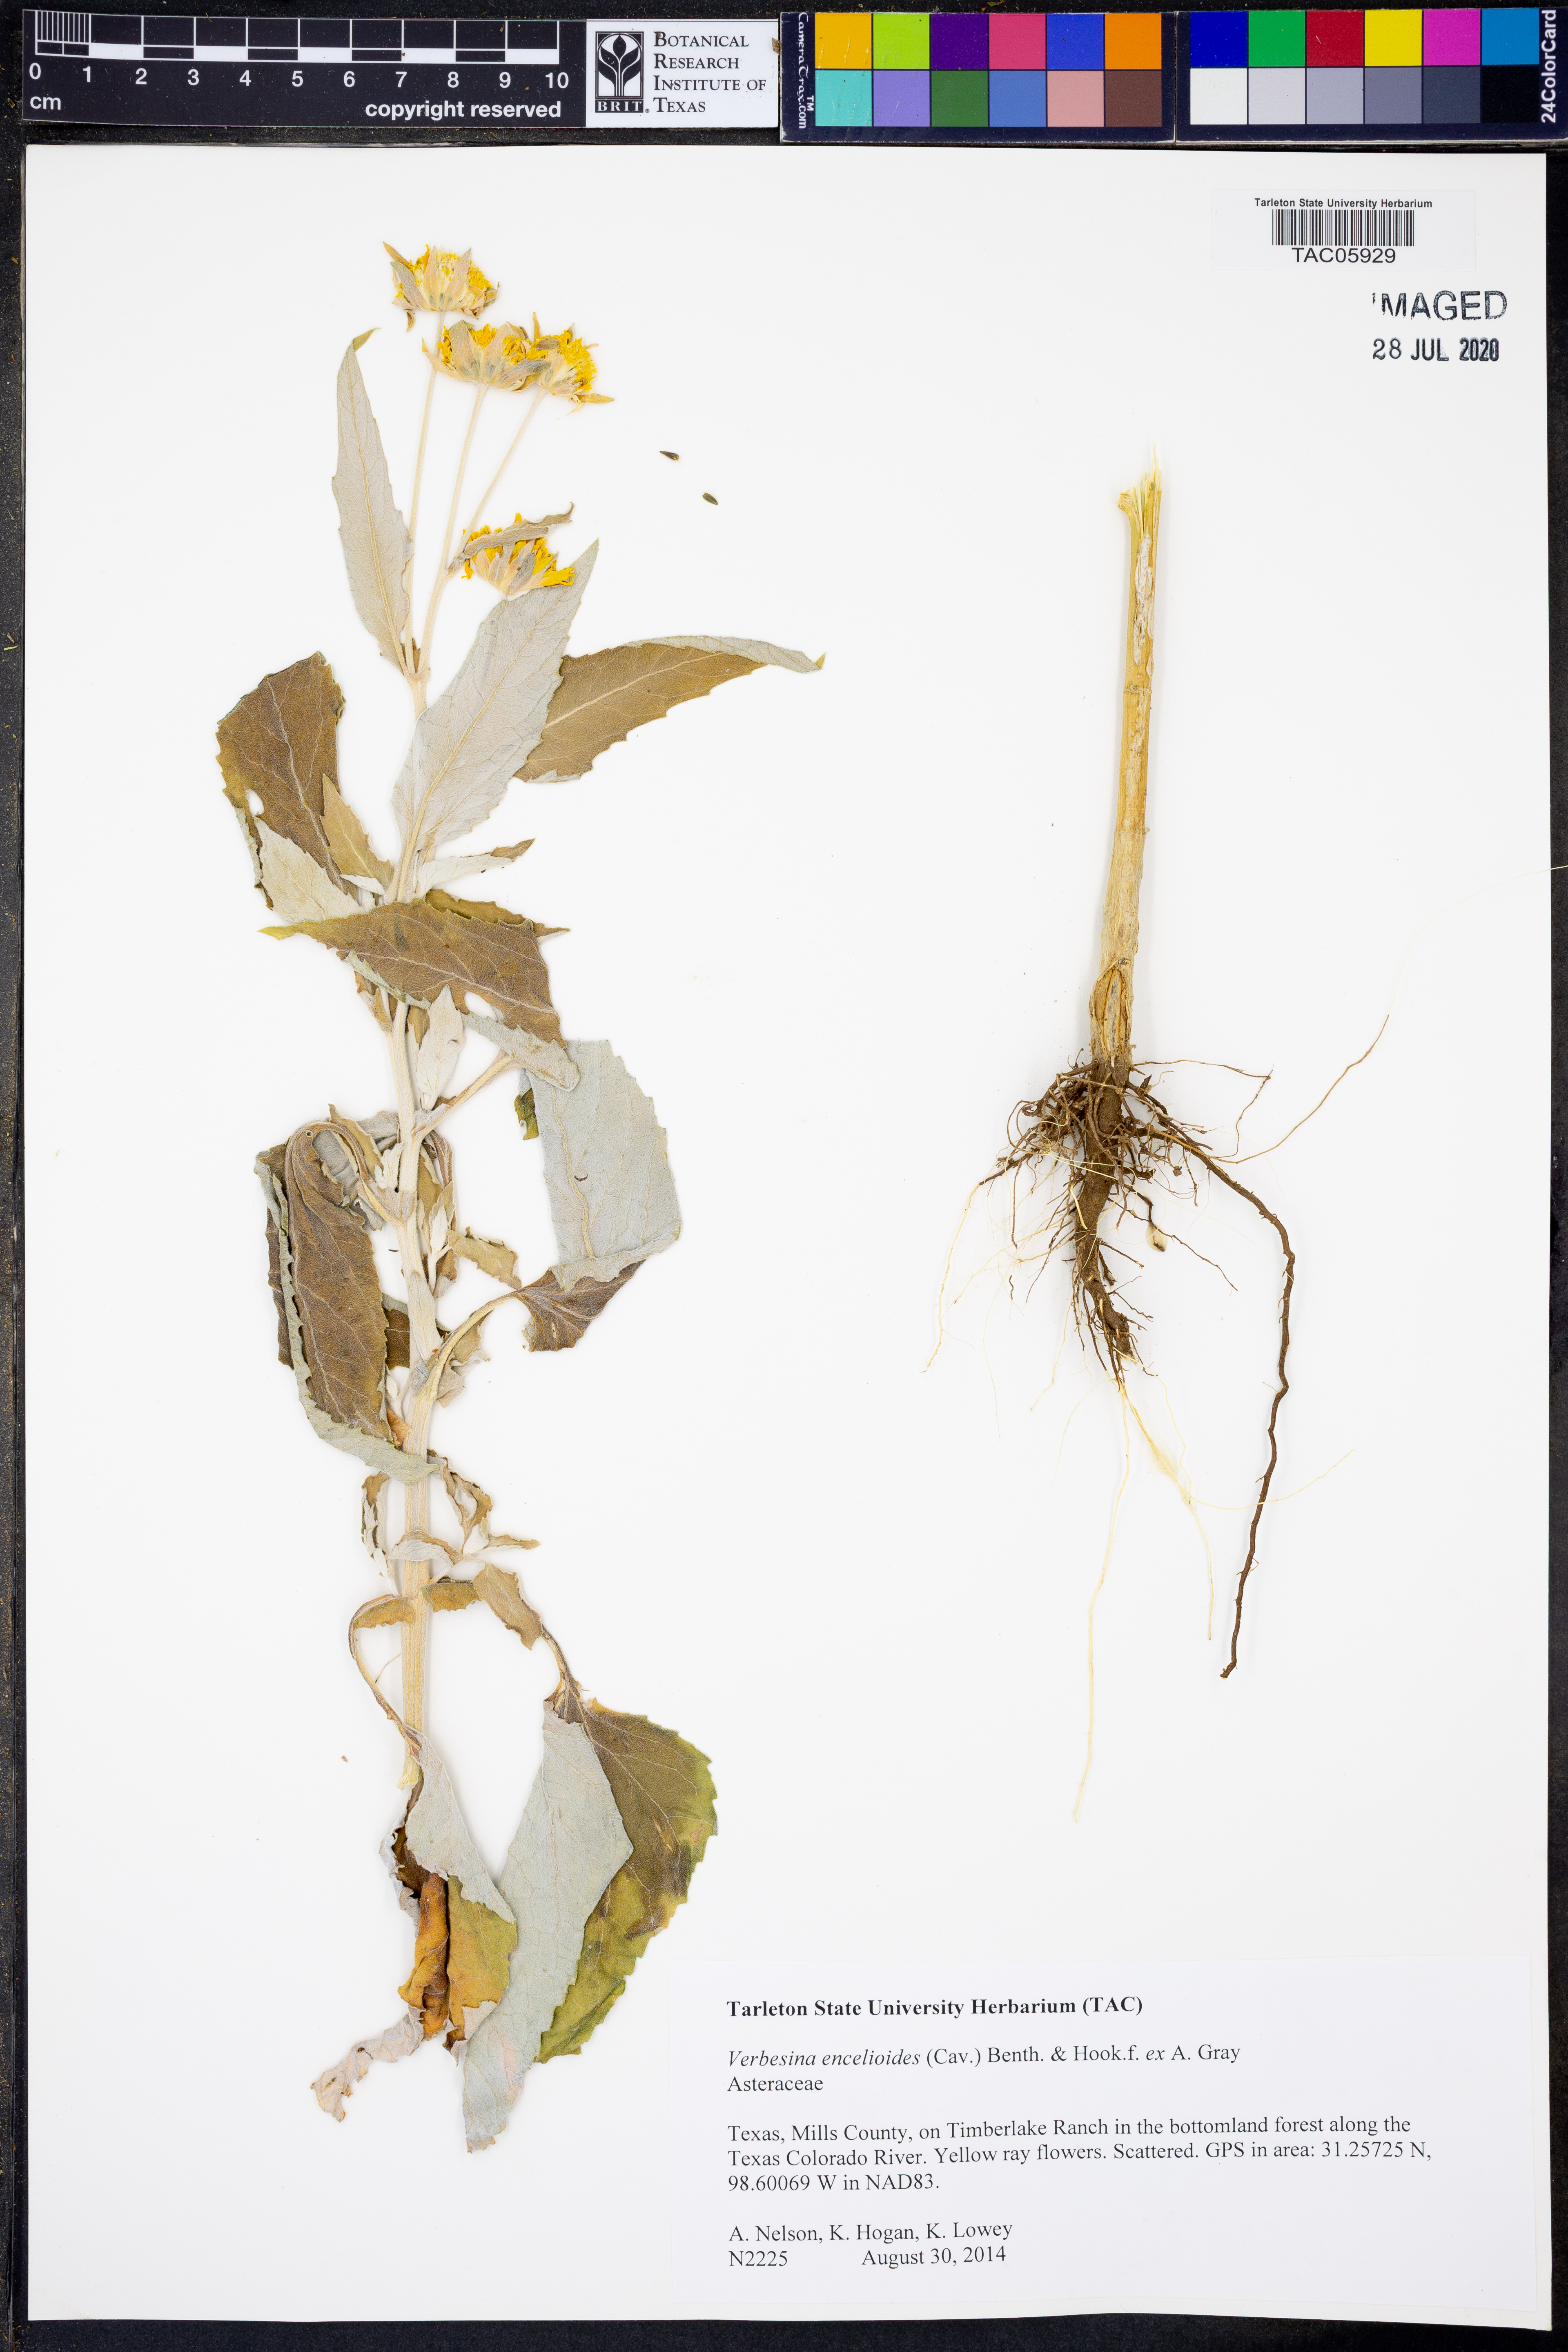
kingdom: Plantae
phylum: Tracheophyta
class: Magnoliopsida
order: Asterales
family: Asteraceae
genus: Verbesina
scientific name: Verbesina encelioides
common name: Golden crownbeard
